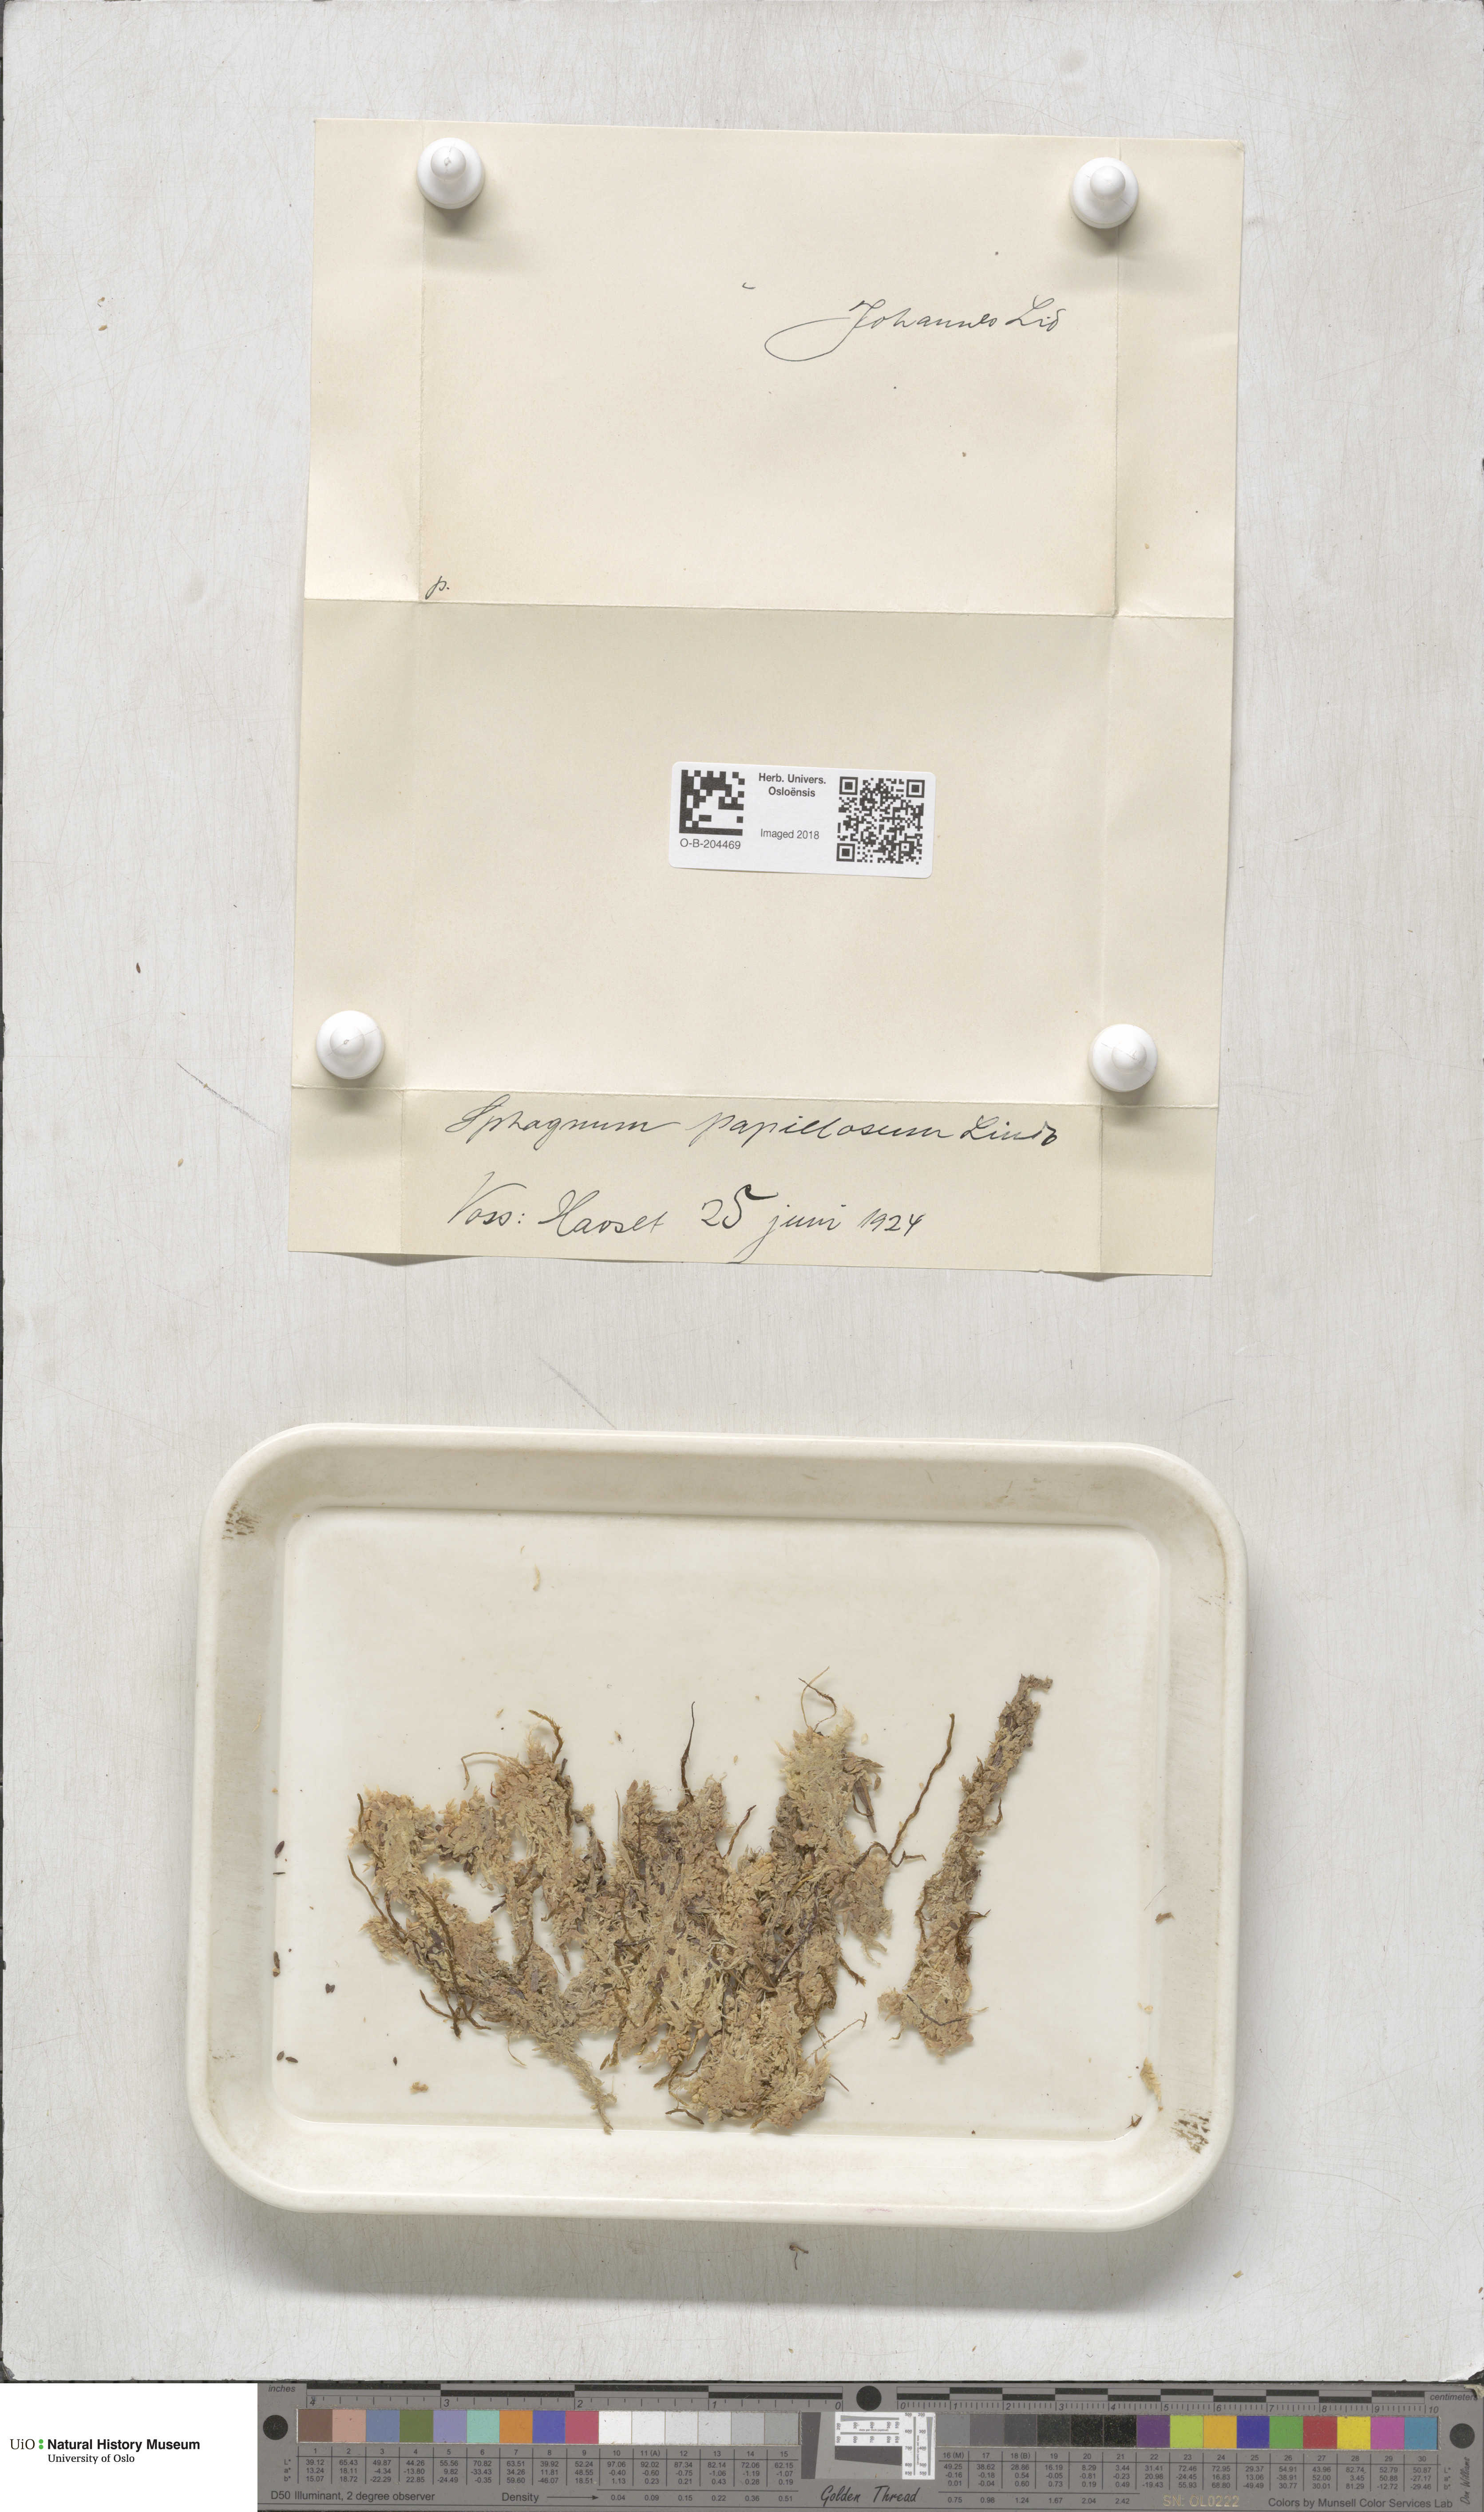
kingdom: Plantae
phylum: Bryophyta
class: Sphagnopsida
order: Sphagnales
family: Sphagnaceae
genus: Sphagnum
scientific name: Sphagnum papillosum
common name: Papillose peat moss
